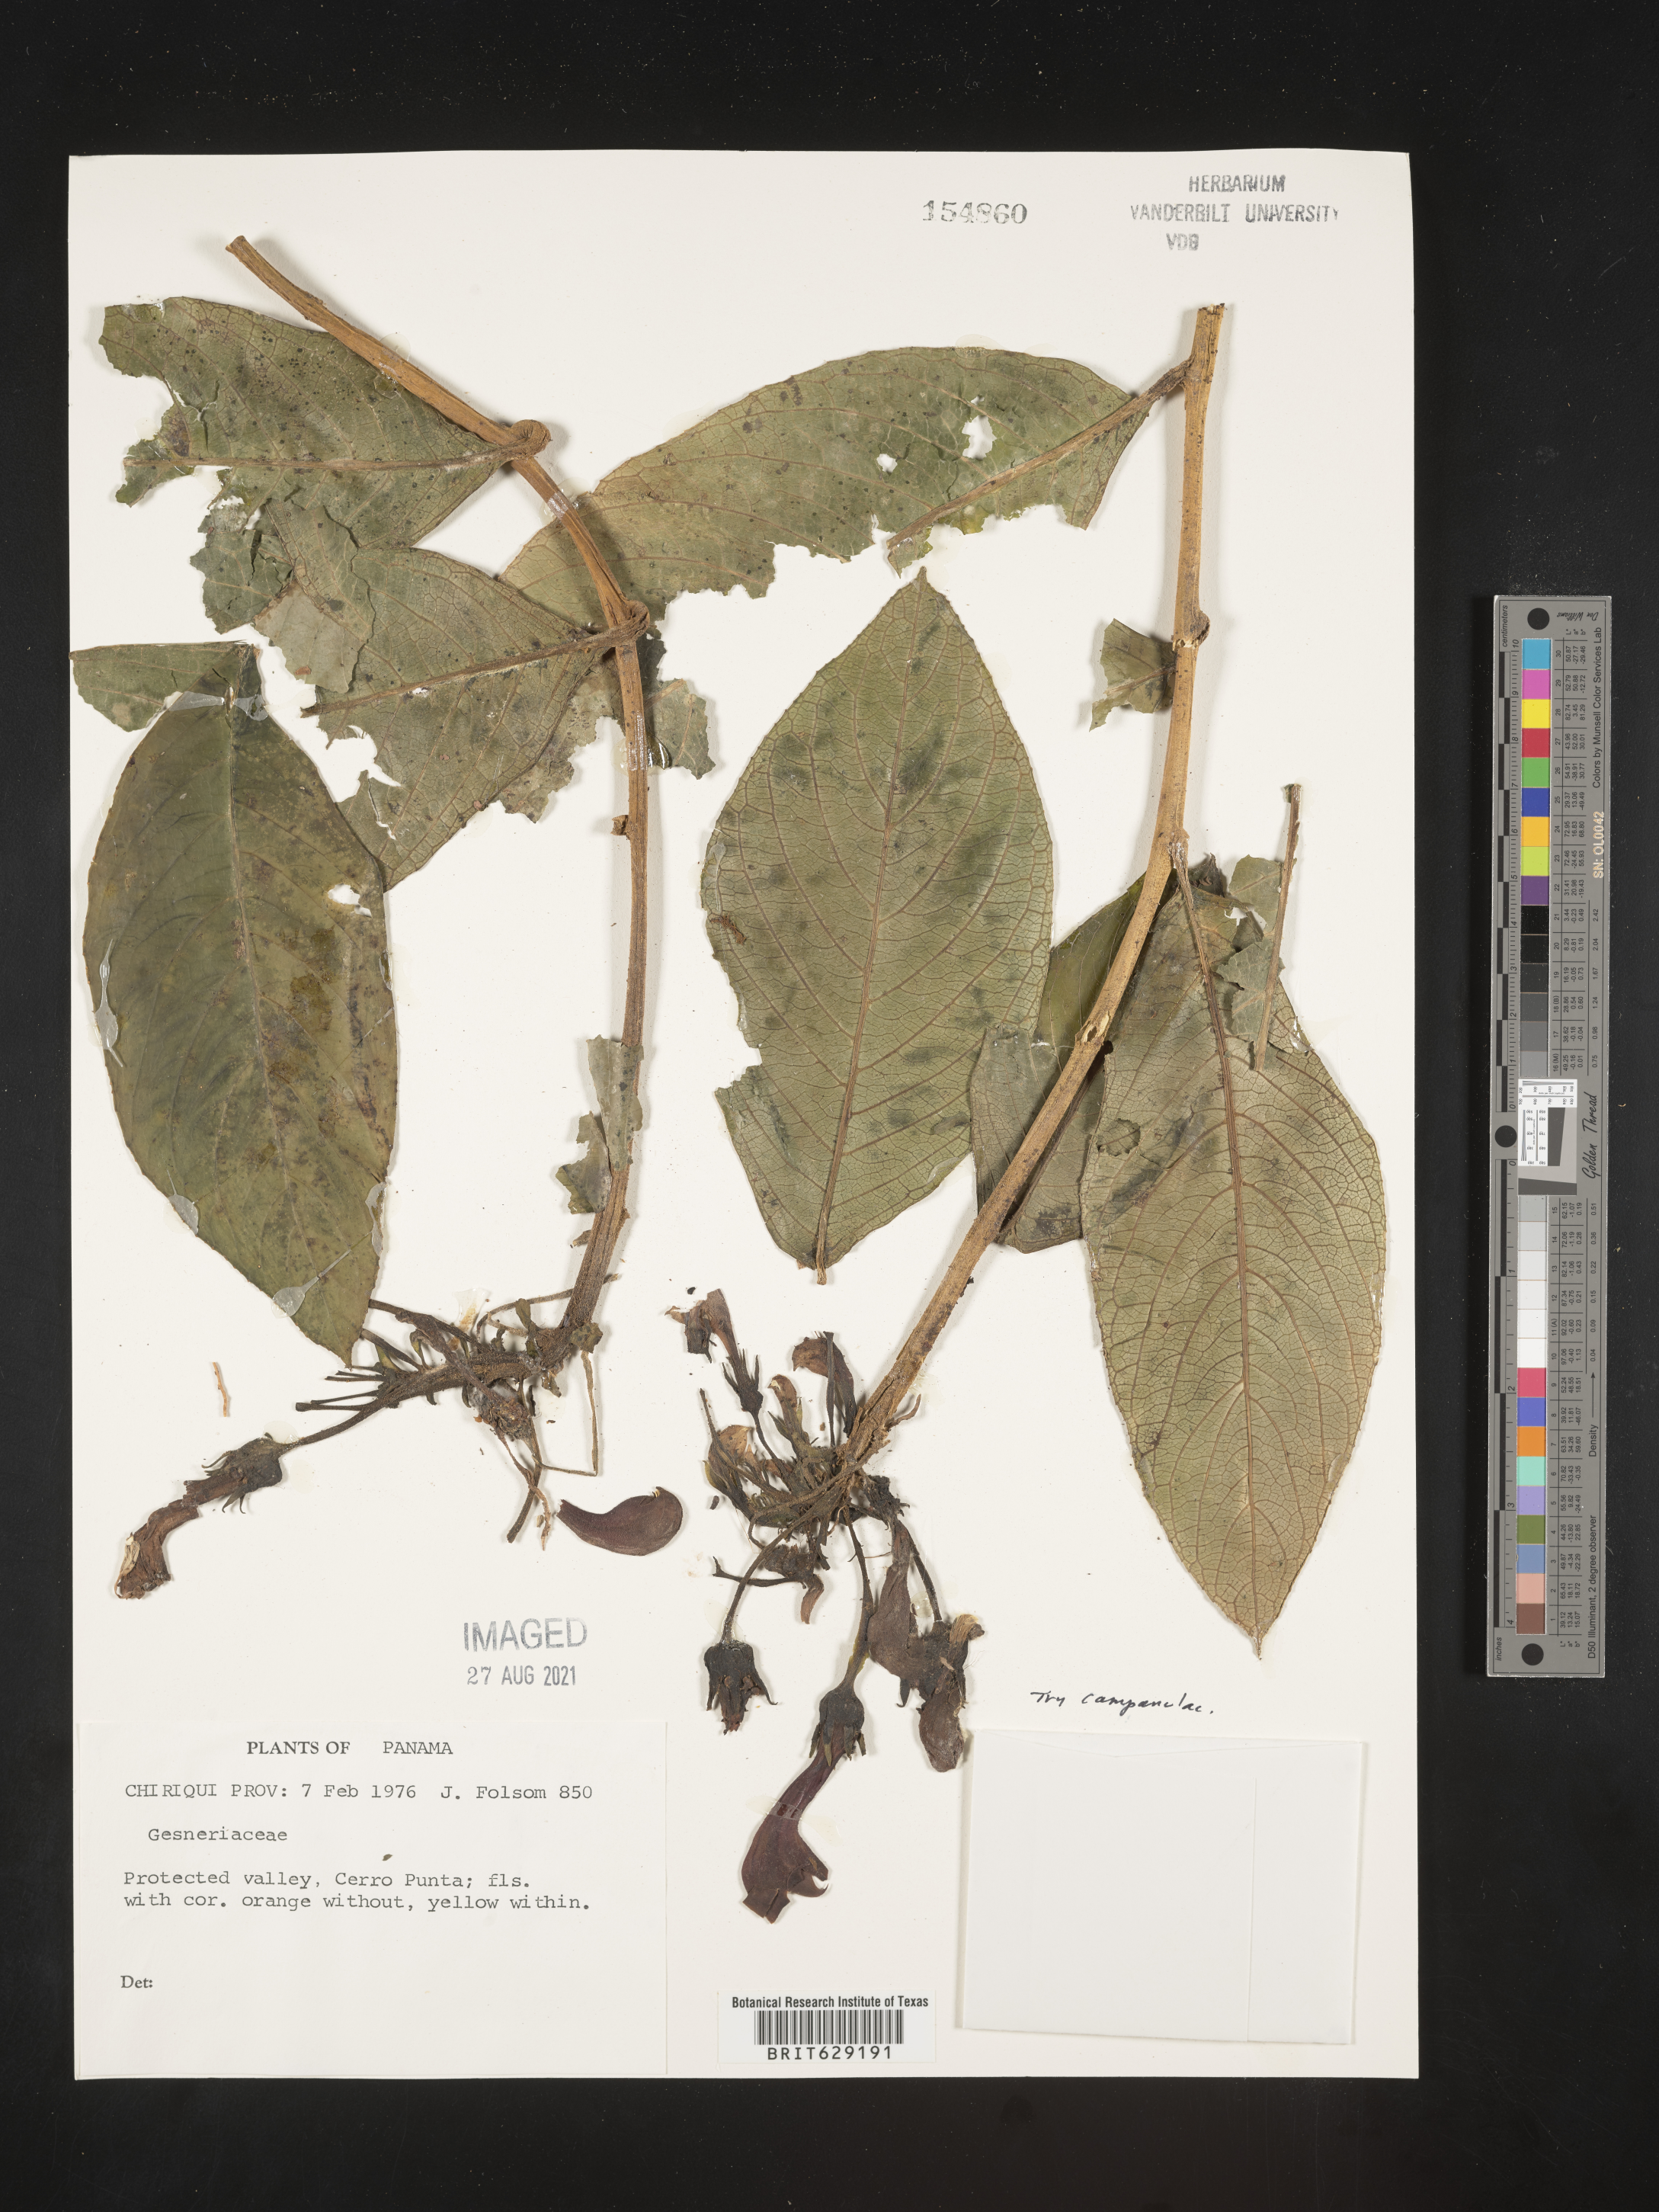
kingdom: Plantae
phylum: Tracheophyta
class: Magnoliopsida
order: Asterales
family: Campanulaceae
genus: Campanula
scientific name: Campanula
